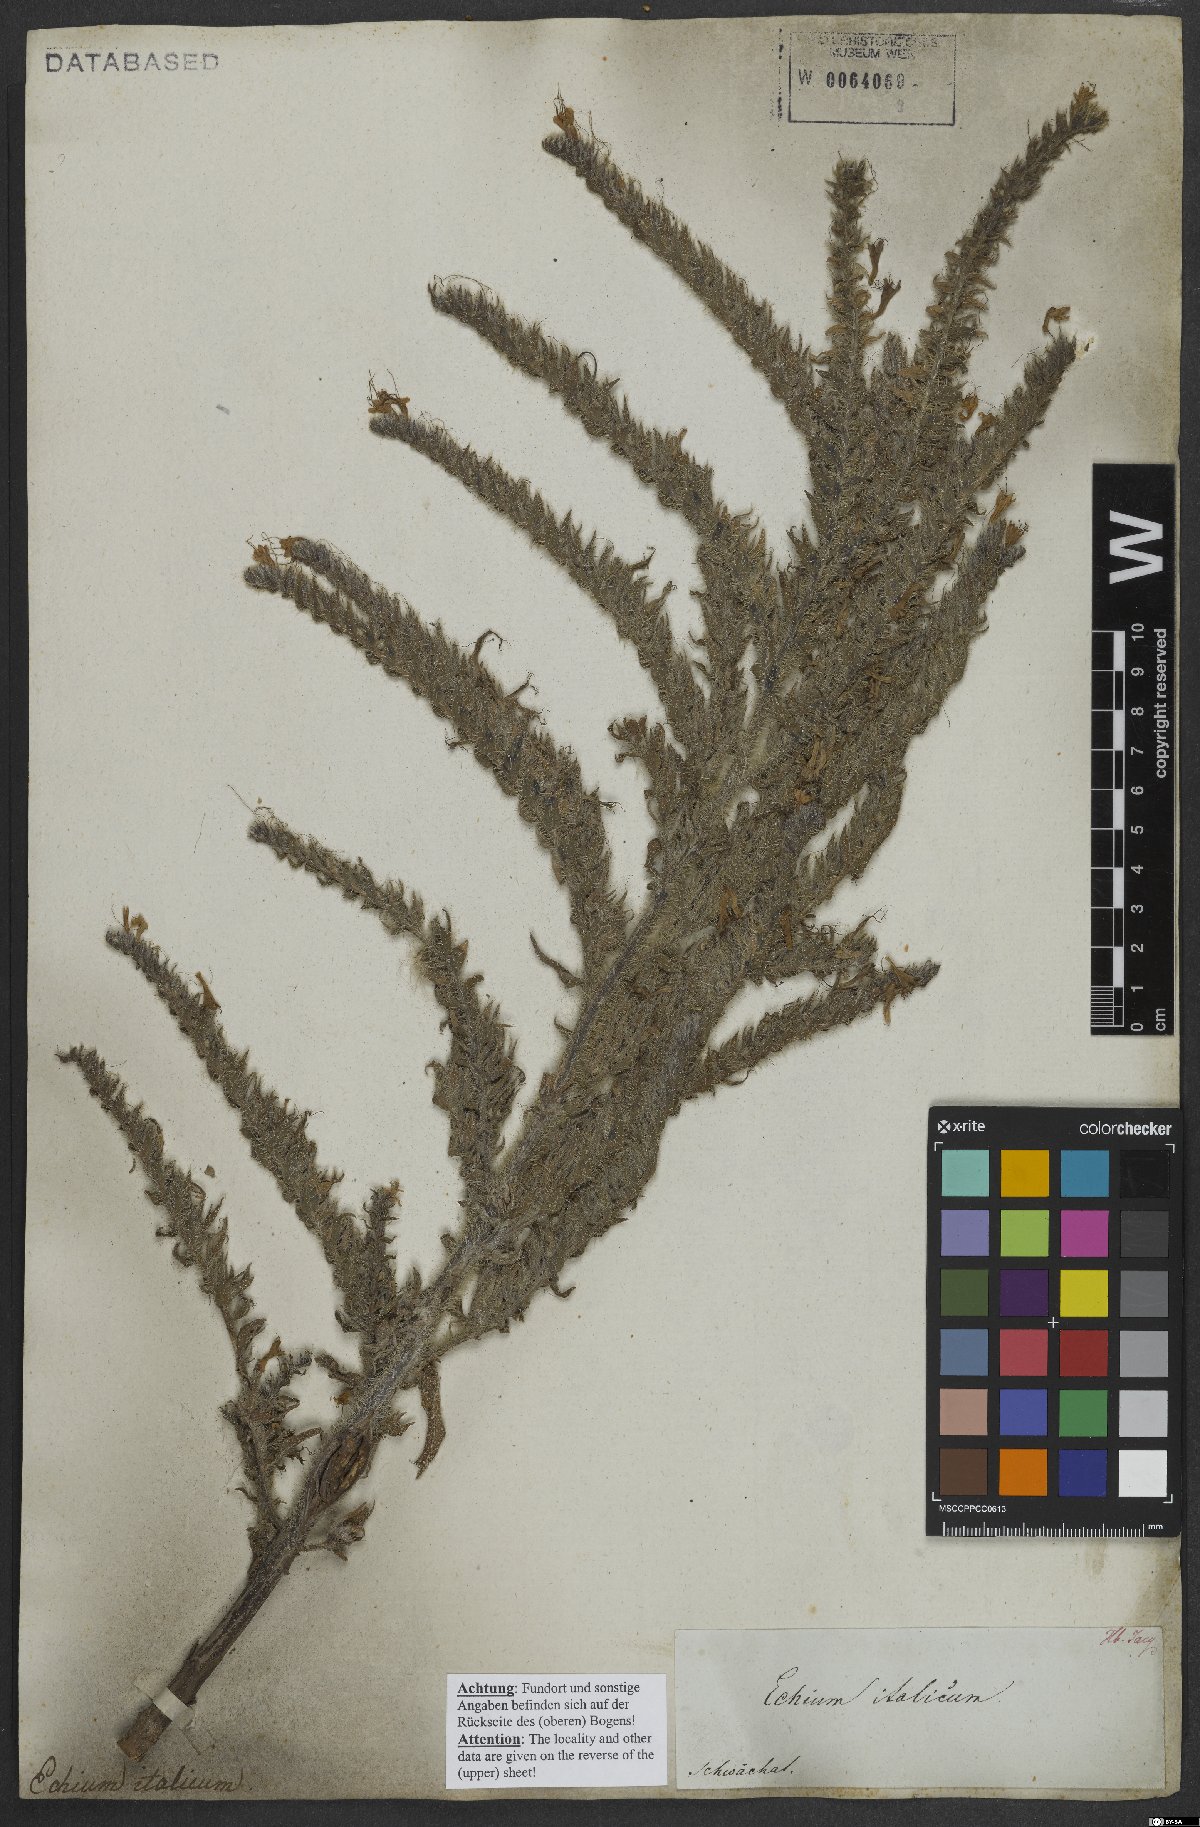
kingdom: Plantae
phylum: Tracheophyta
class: Magnoliopsida
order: Boraginales
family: Boraginaceae
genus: Echium
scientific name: Echium italicum
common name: Italian viper's bugloss
